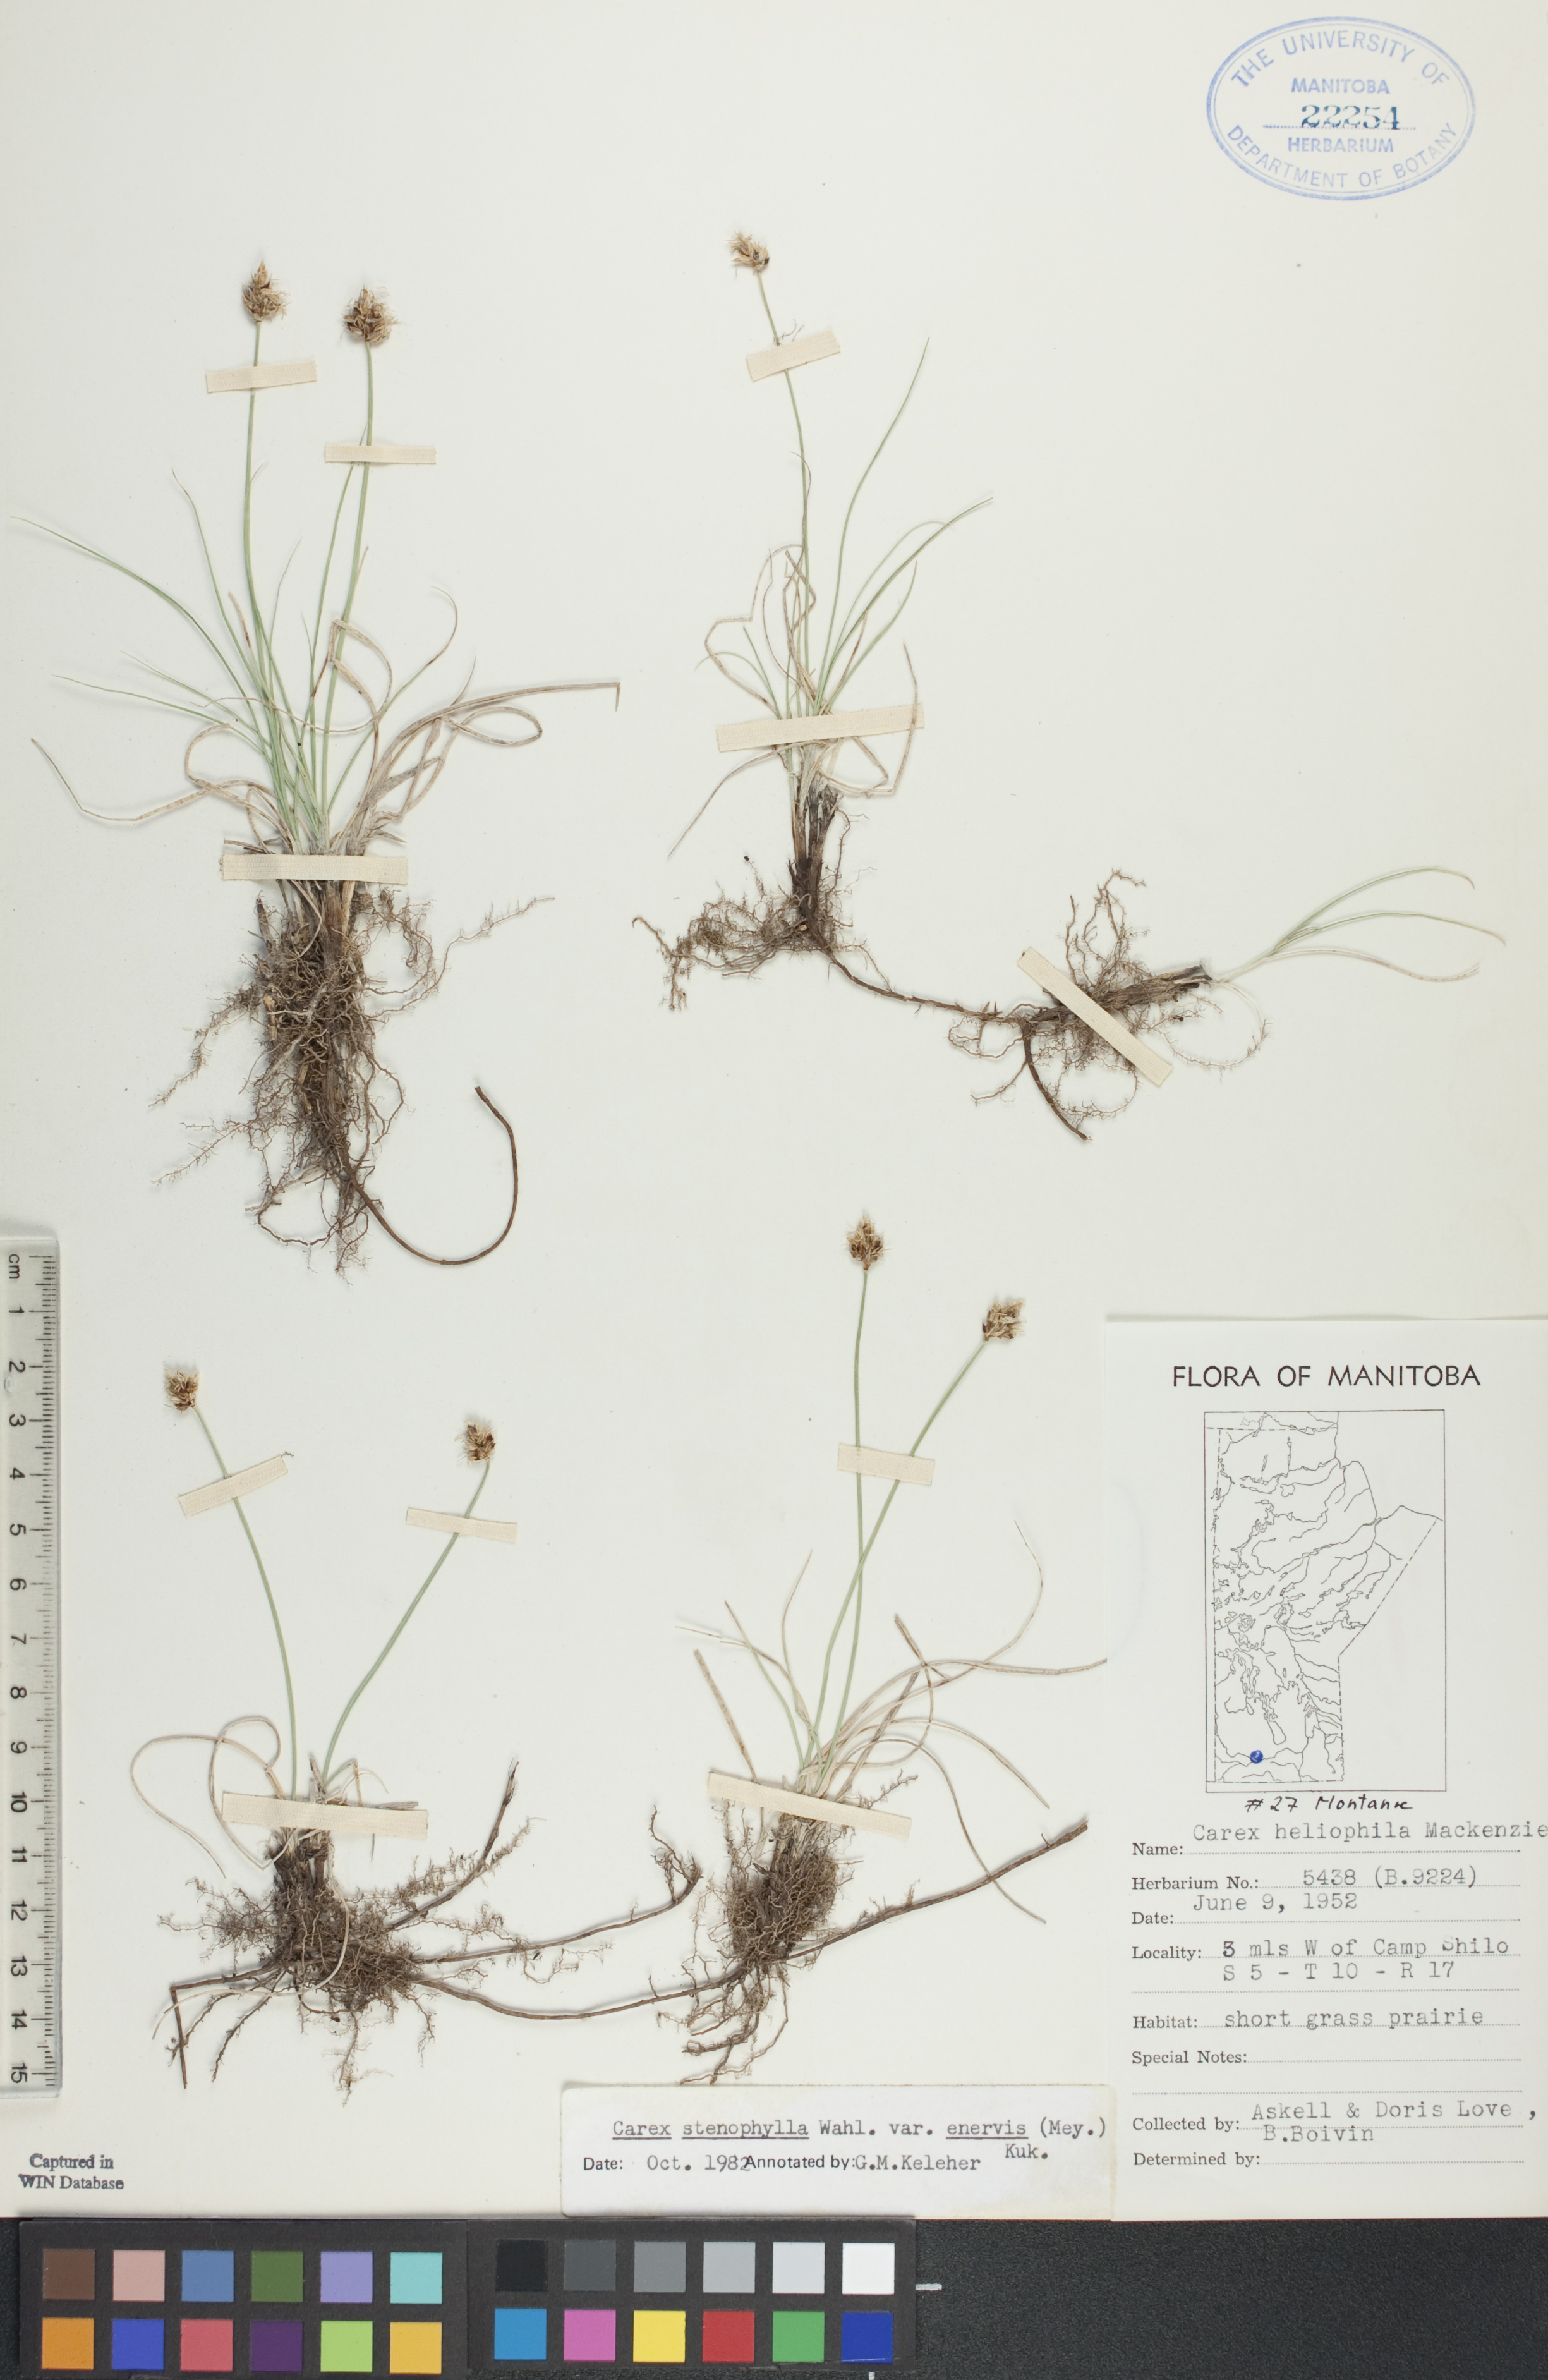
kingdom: Plantae
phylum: Tracheophyta
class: Liliopsida
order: Poales
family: Cyperaceae
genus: Carex
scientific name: Carex enervis
